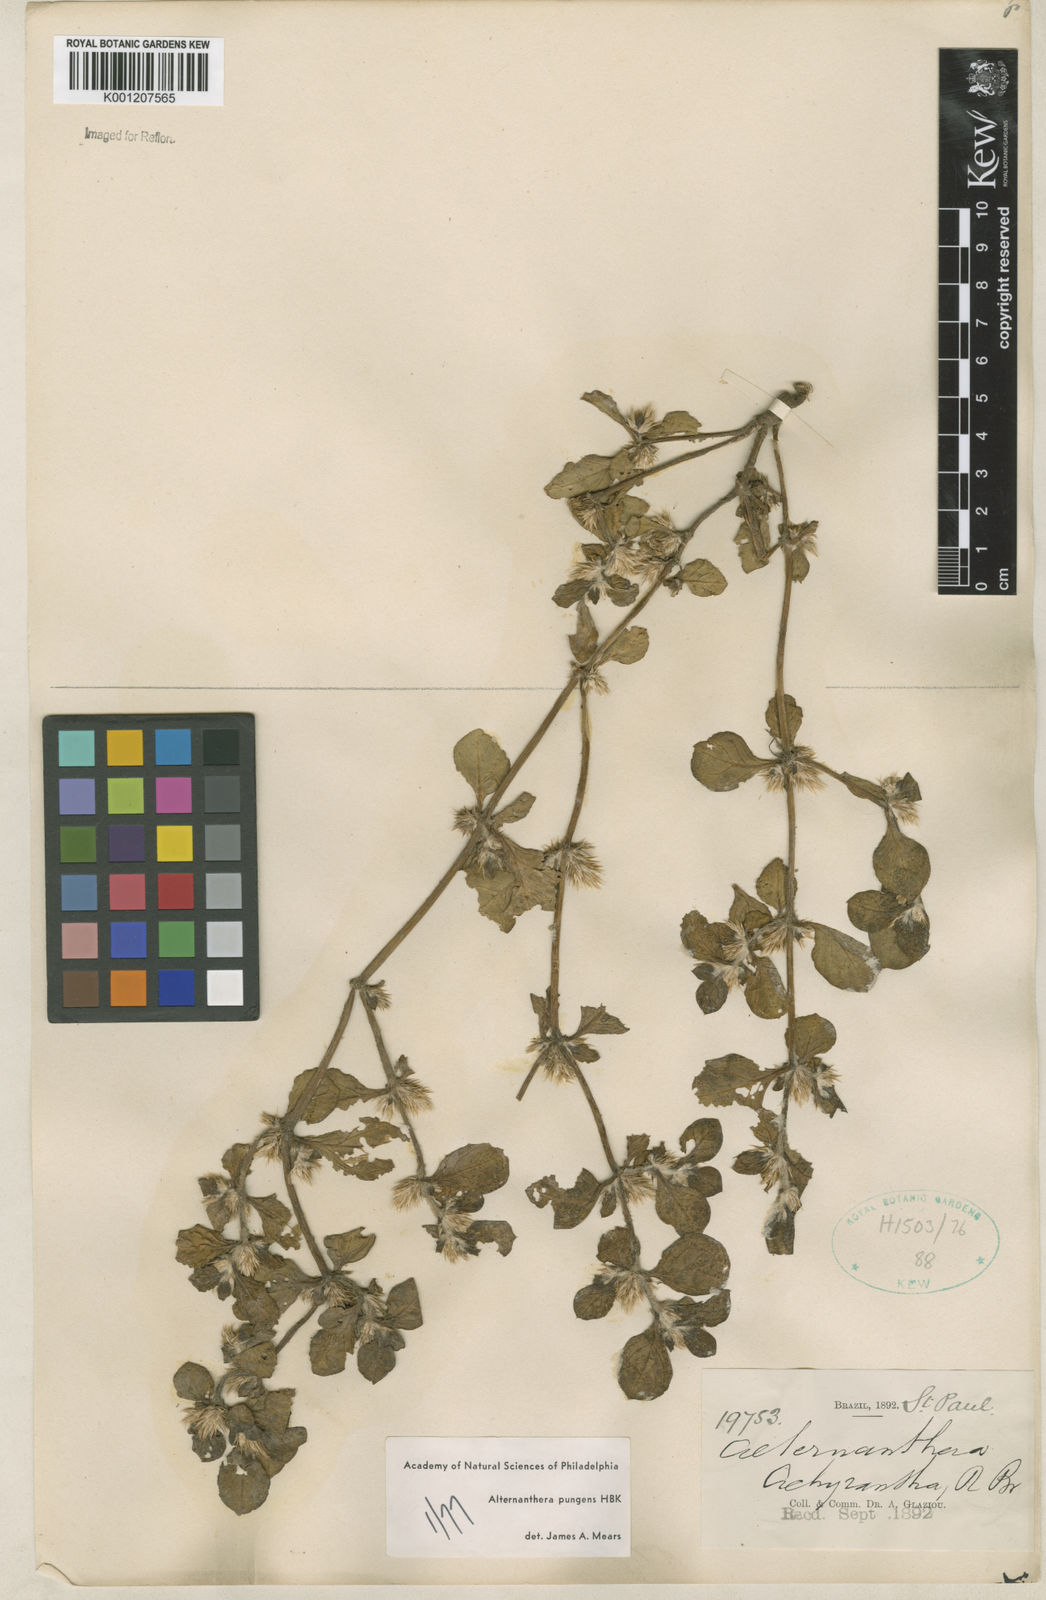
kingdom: Plantae
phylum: Tracheophyta
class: Magnoliopsida
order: Caryophyllales
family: Amaranthaceae
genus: Alternanthera
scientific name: Alternanthera pungens
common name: Khakiweed
